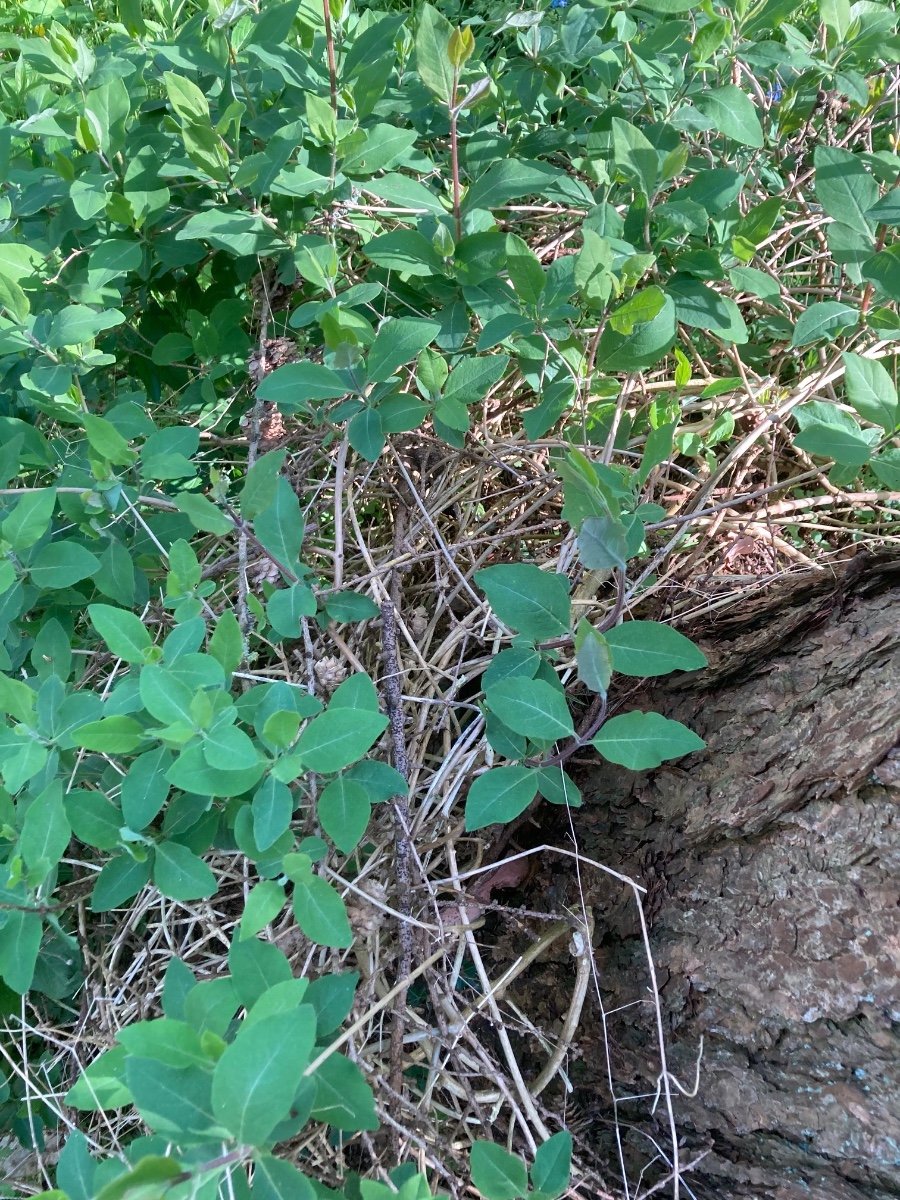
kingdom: Fungi
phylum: Ascomycota
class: Sordariomycetes
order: Xylariales
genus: Melomastia
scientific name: Melomastia mastoidea
